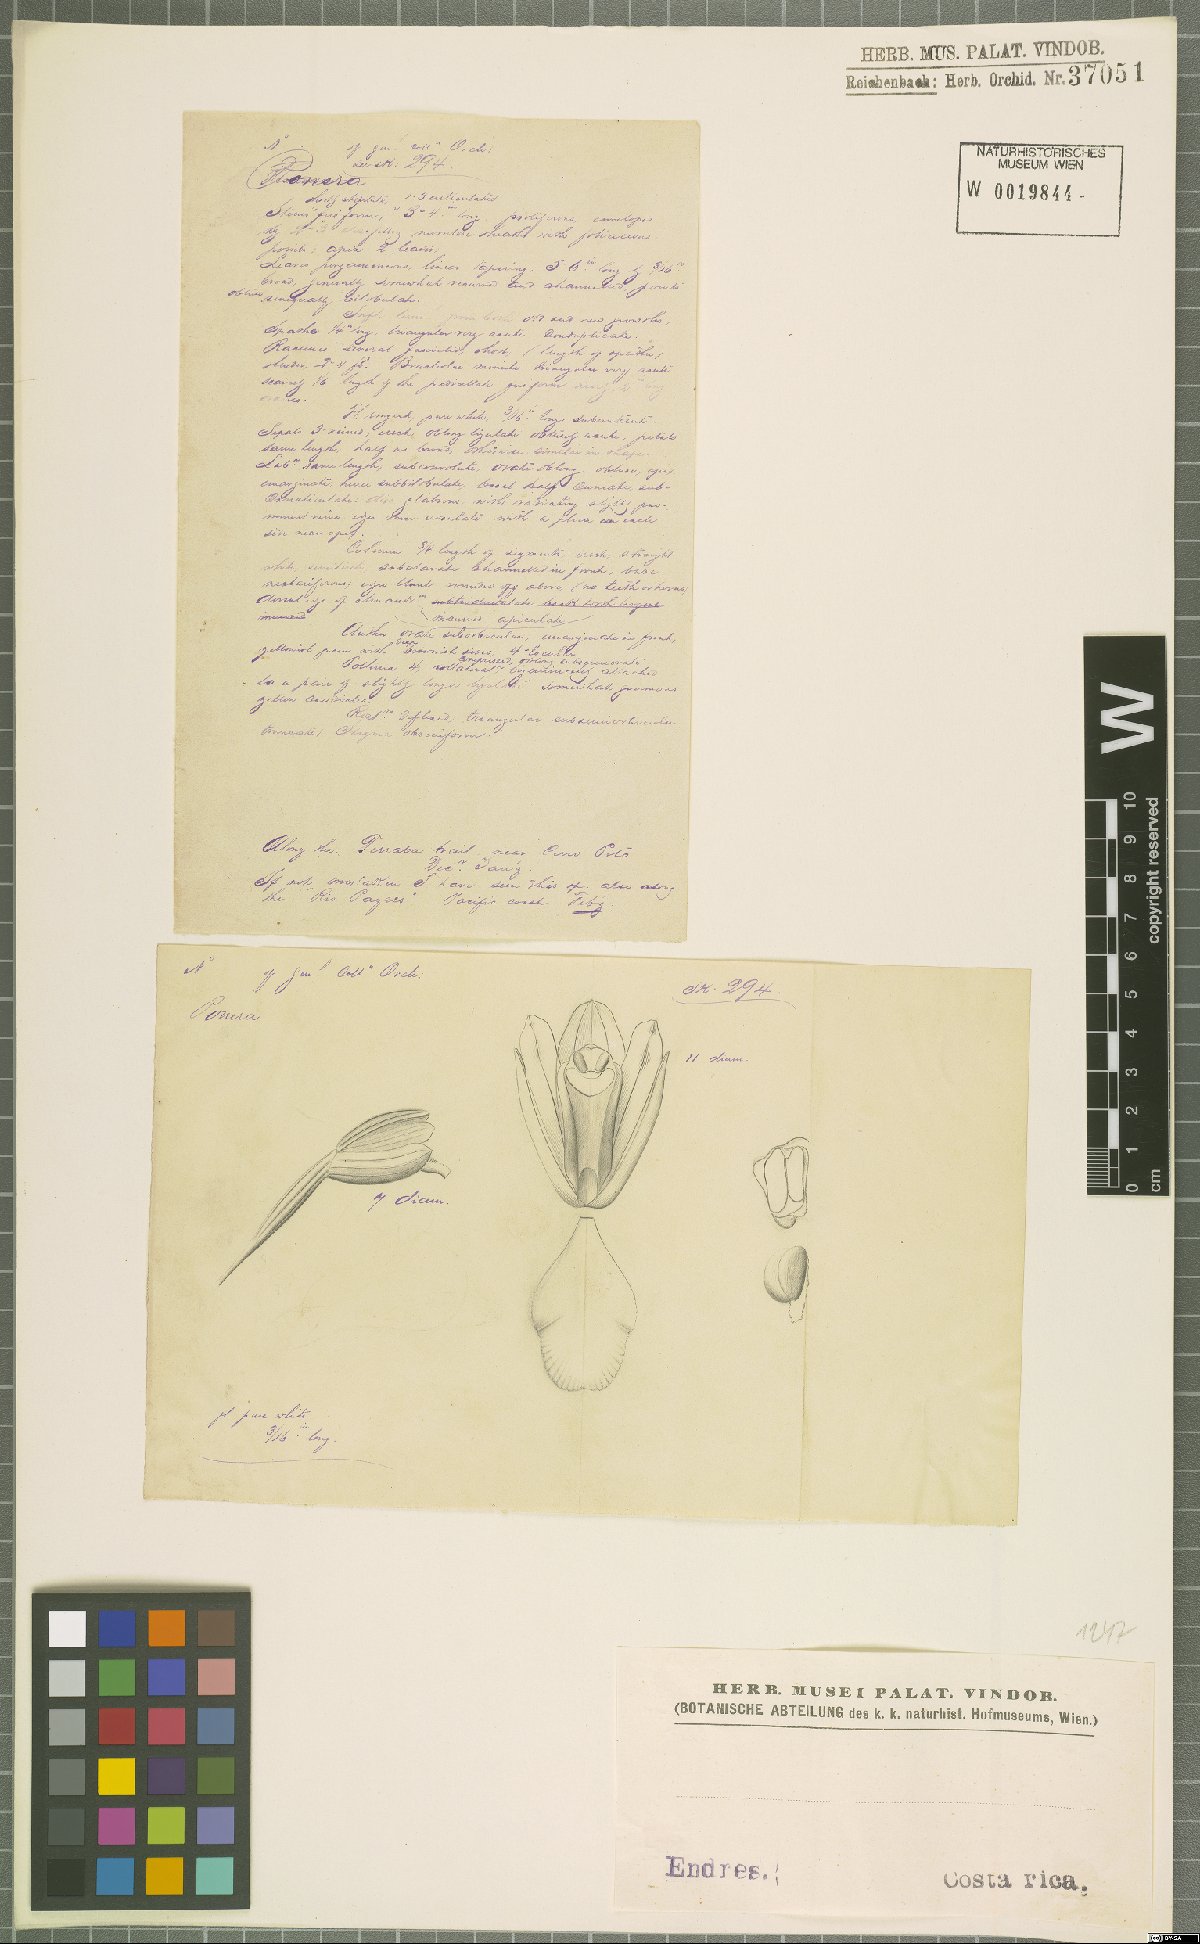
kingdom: Plantae
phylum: Tracheophyta
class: Liliopsida
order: Asparagales
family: Orchidaceae
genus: Ponera
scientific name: Ponera
